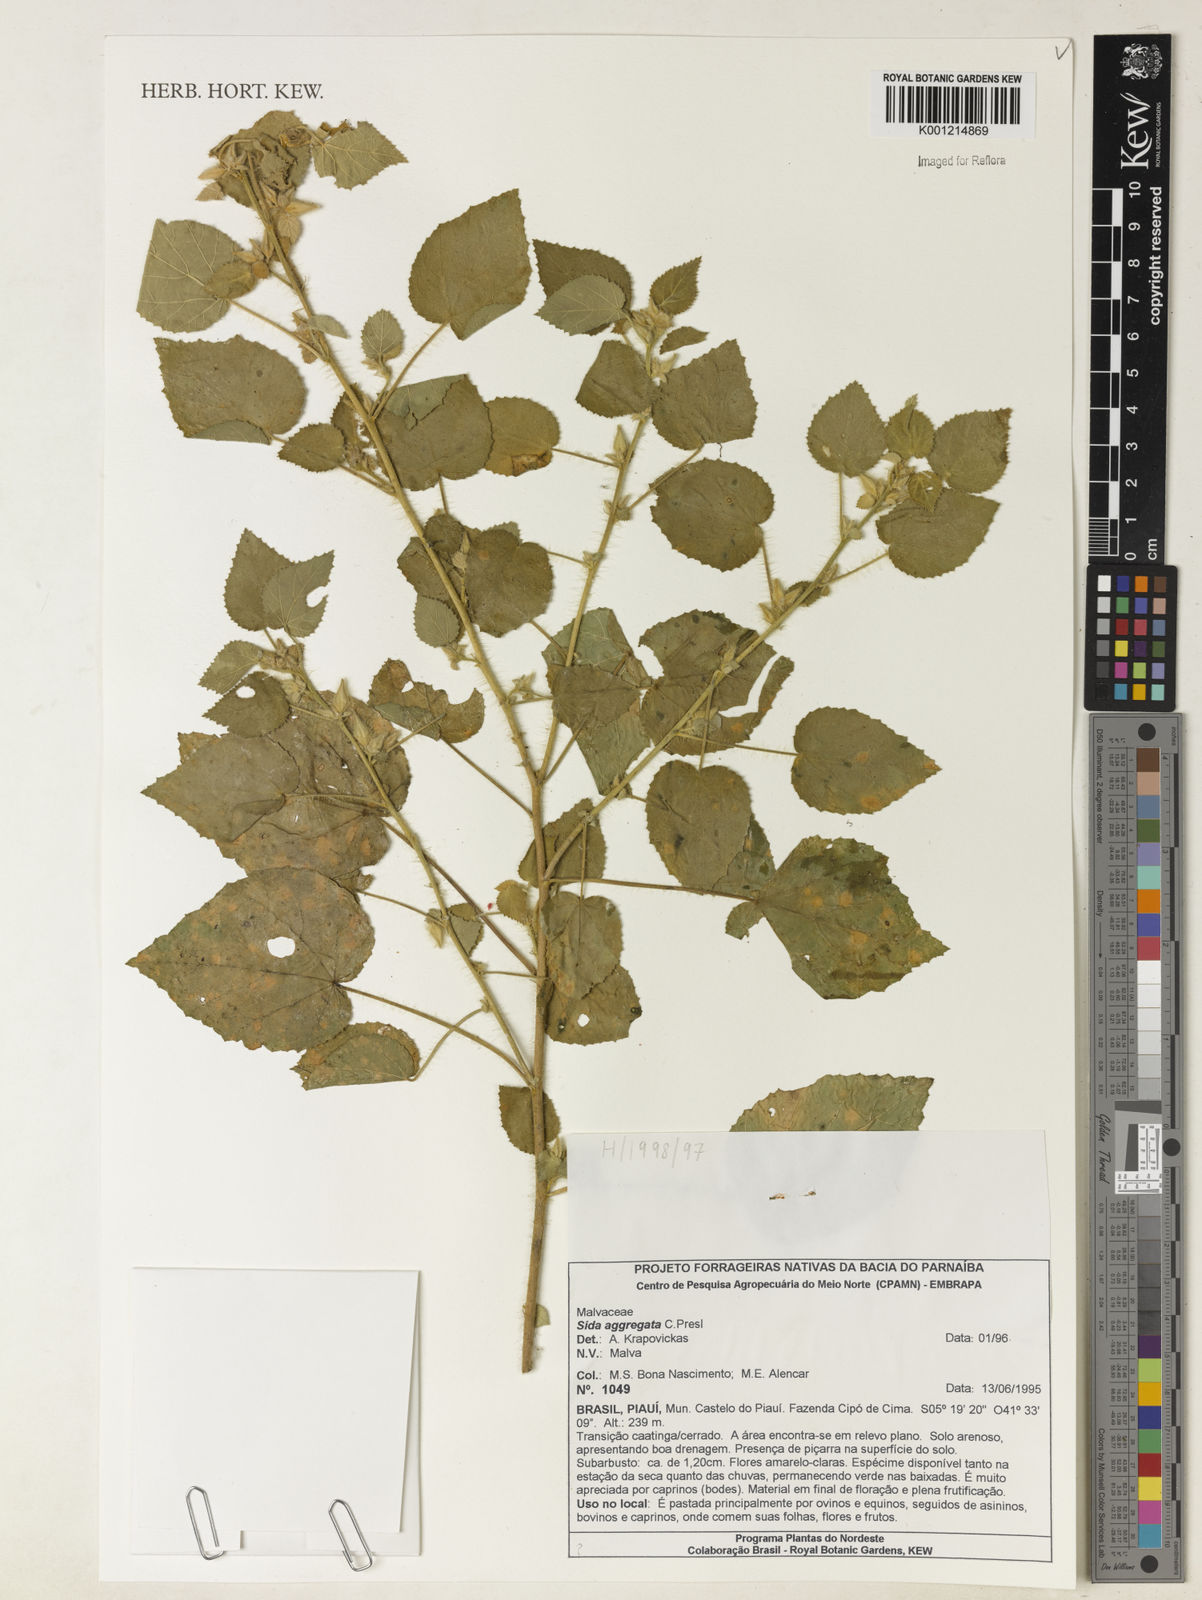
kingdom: Plantae
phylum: Tracheophyta
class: Magnoliopsida
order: Malvales
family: Malvaceae
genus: Sida
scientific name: Sida aggregata
